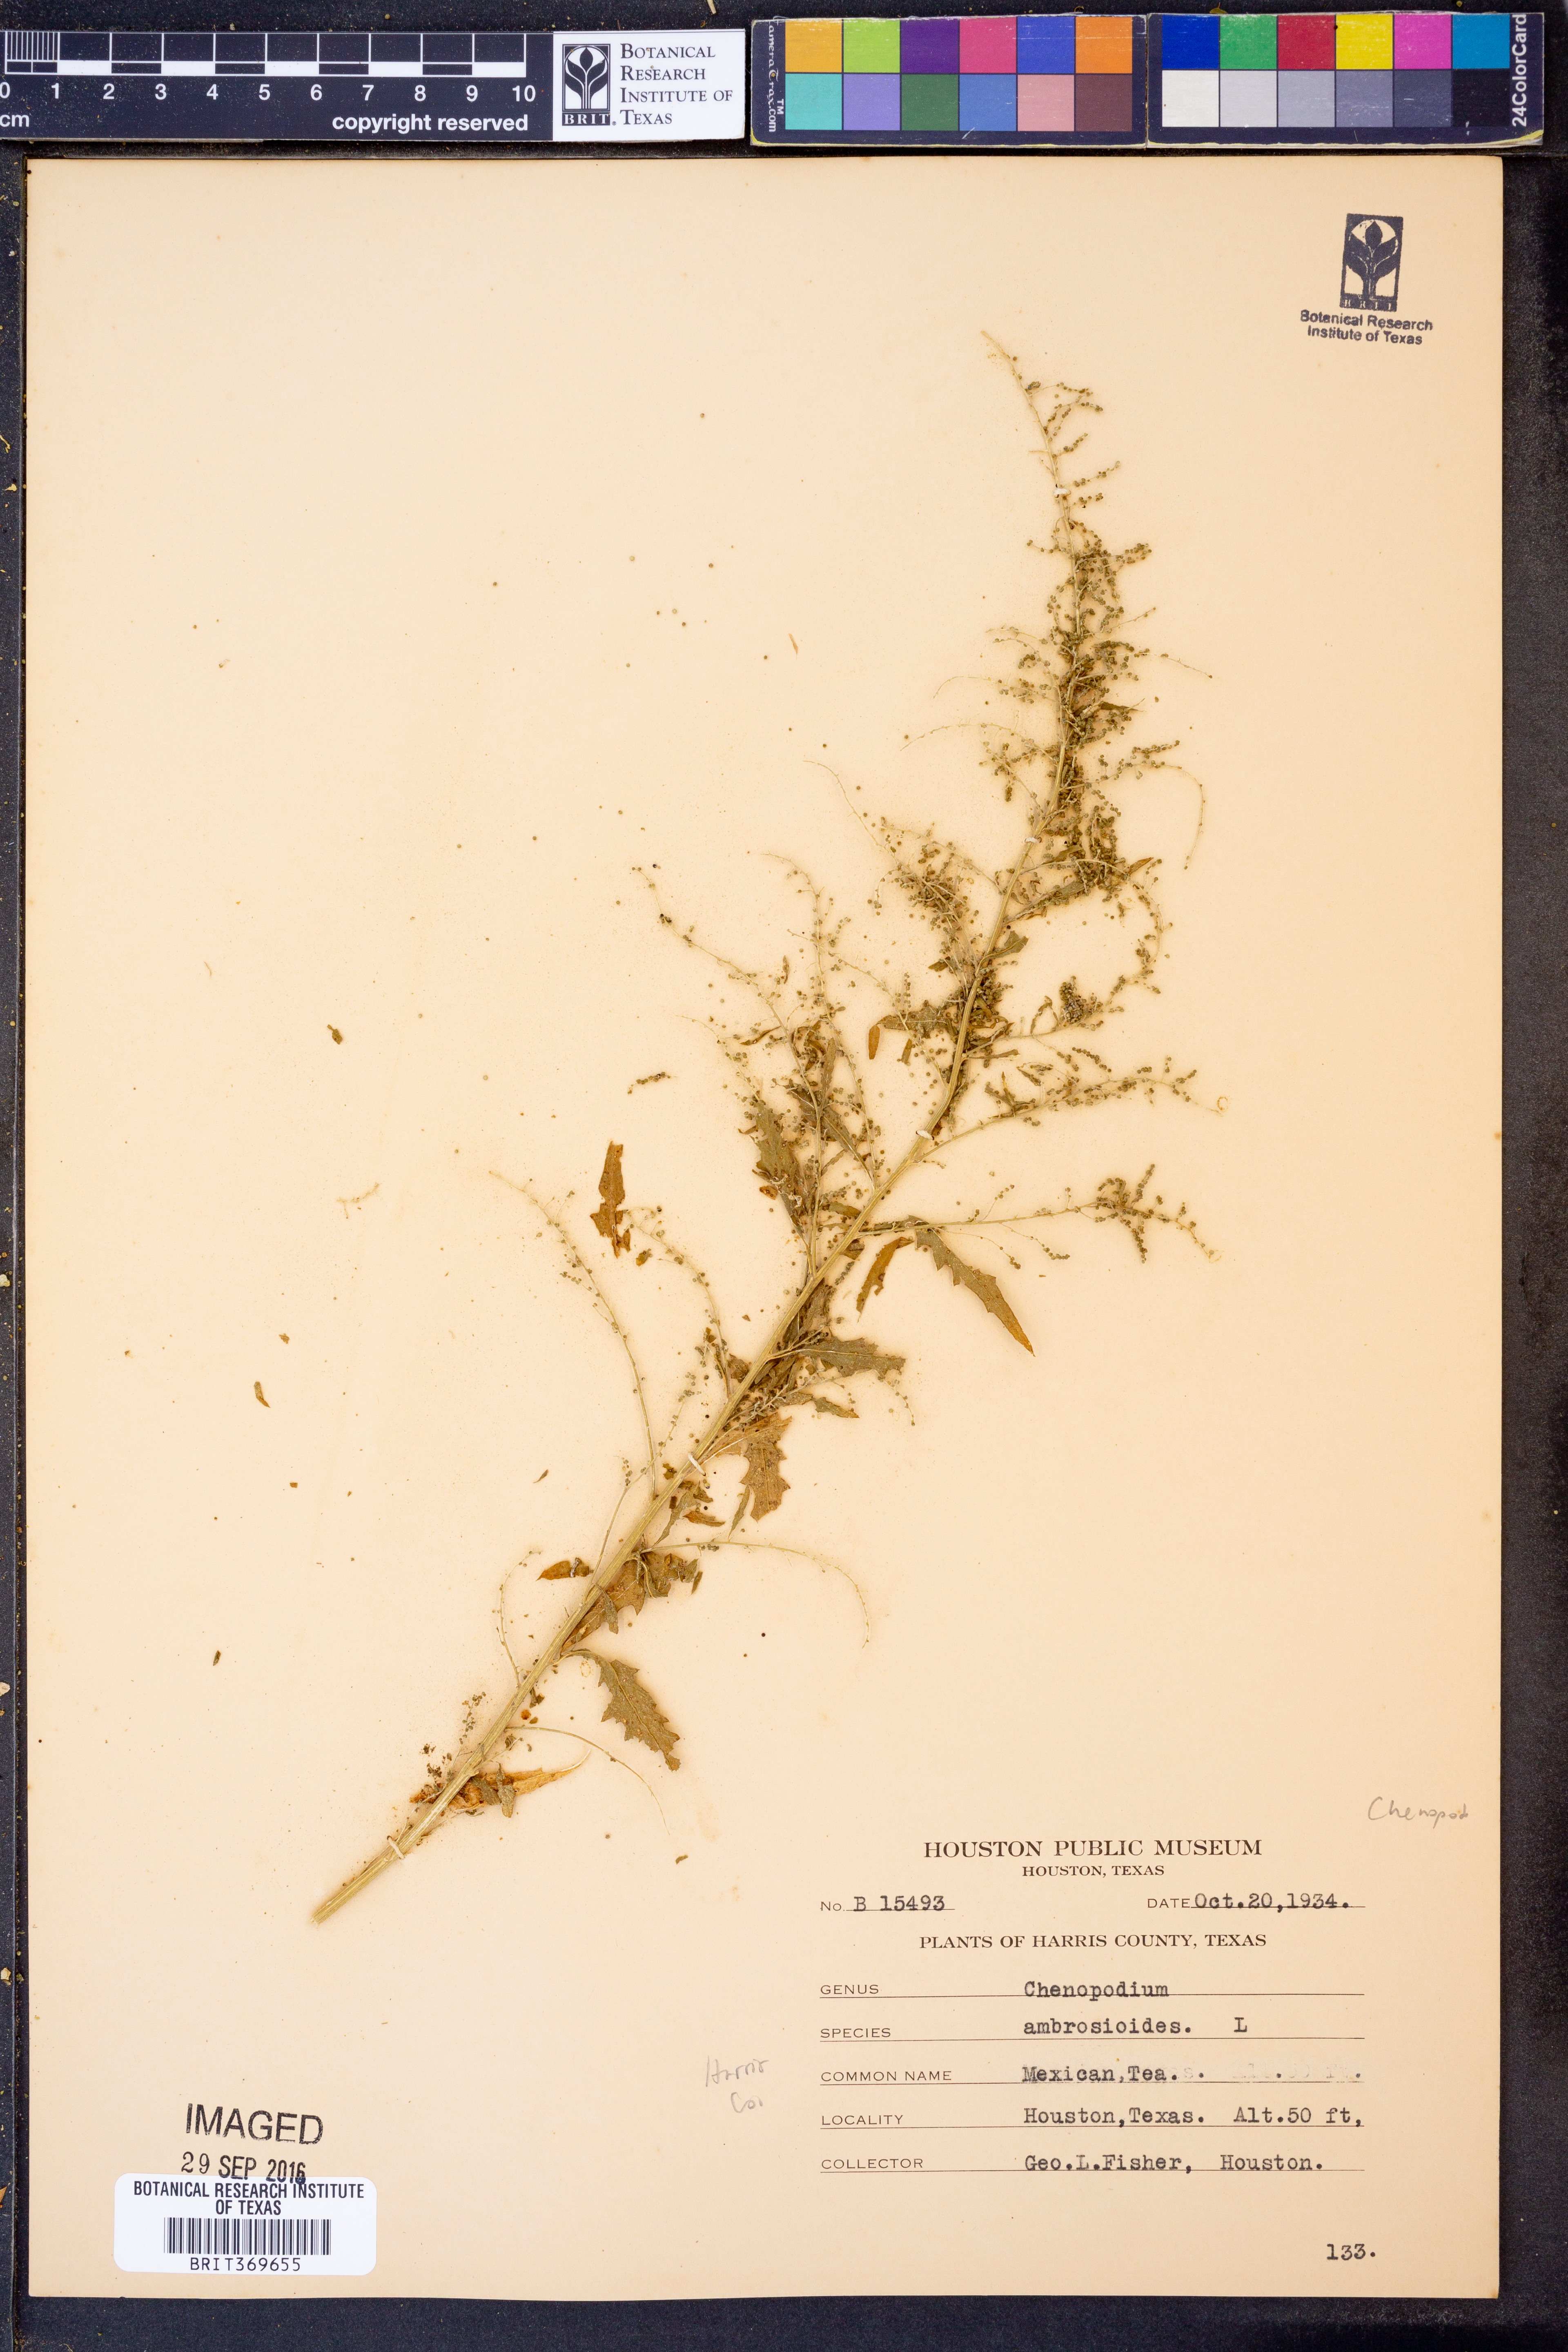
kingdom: Plantae
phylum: Tracheophyta
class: Magnoliopsida
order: Caryophyllales
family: Amaranthaceae
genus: Dysphania
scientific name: Dysphania ambrosioides
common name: Wormseed
